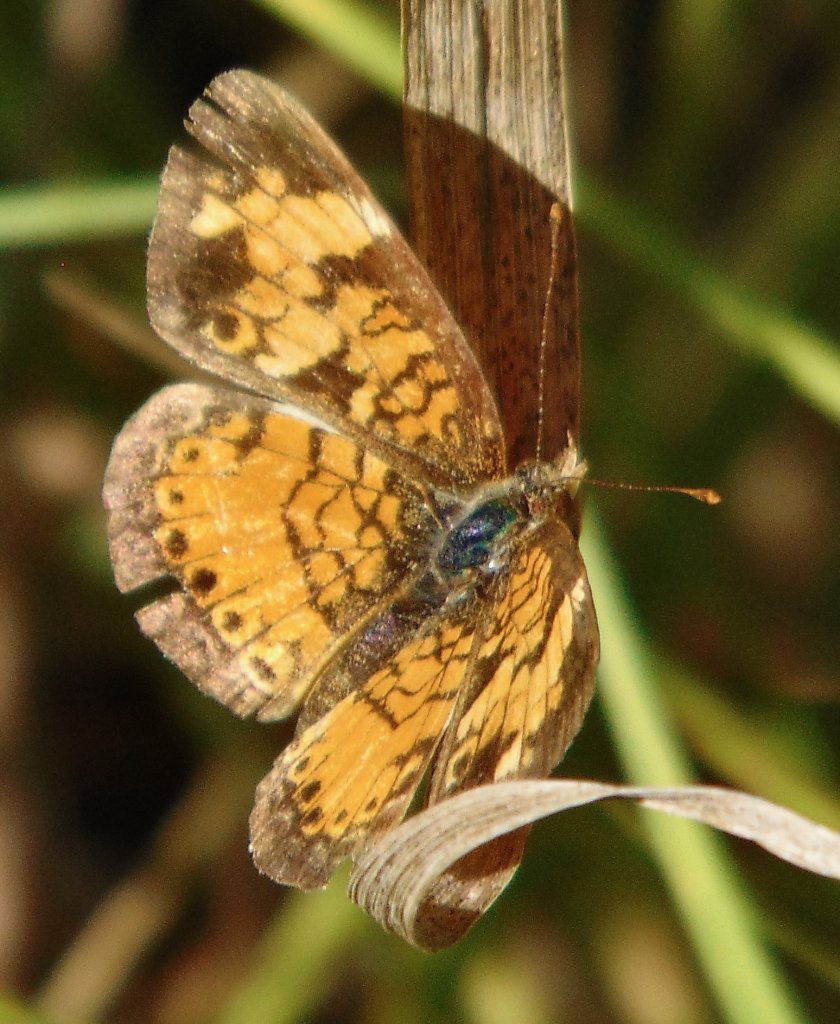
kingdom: Animalia
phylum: Arthropoda
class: Insecta
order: Lepidoptera
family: Nymphalidae
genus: Phyciodes
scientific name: Phyciodes tharos
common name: Pearl Crescent
